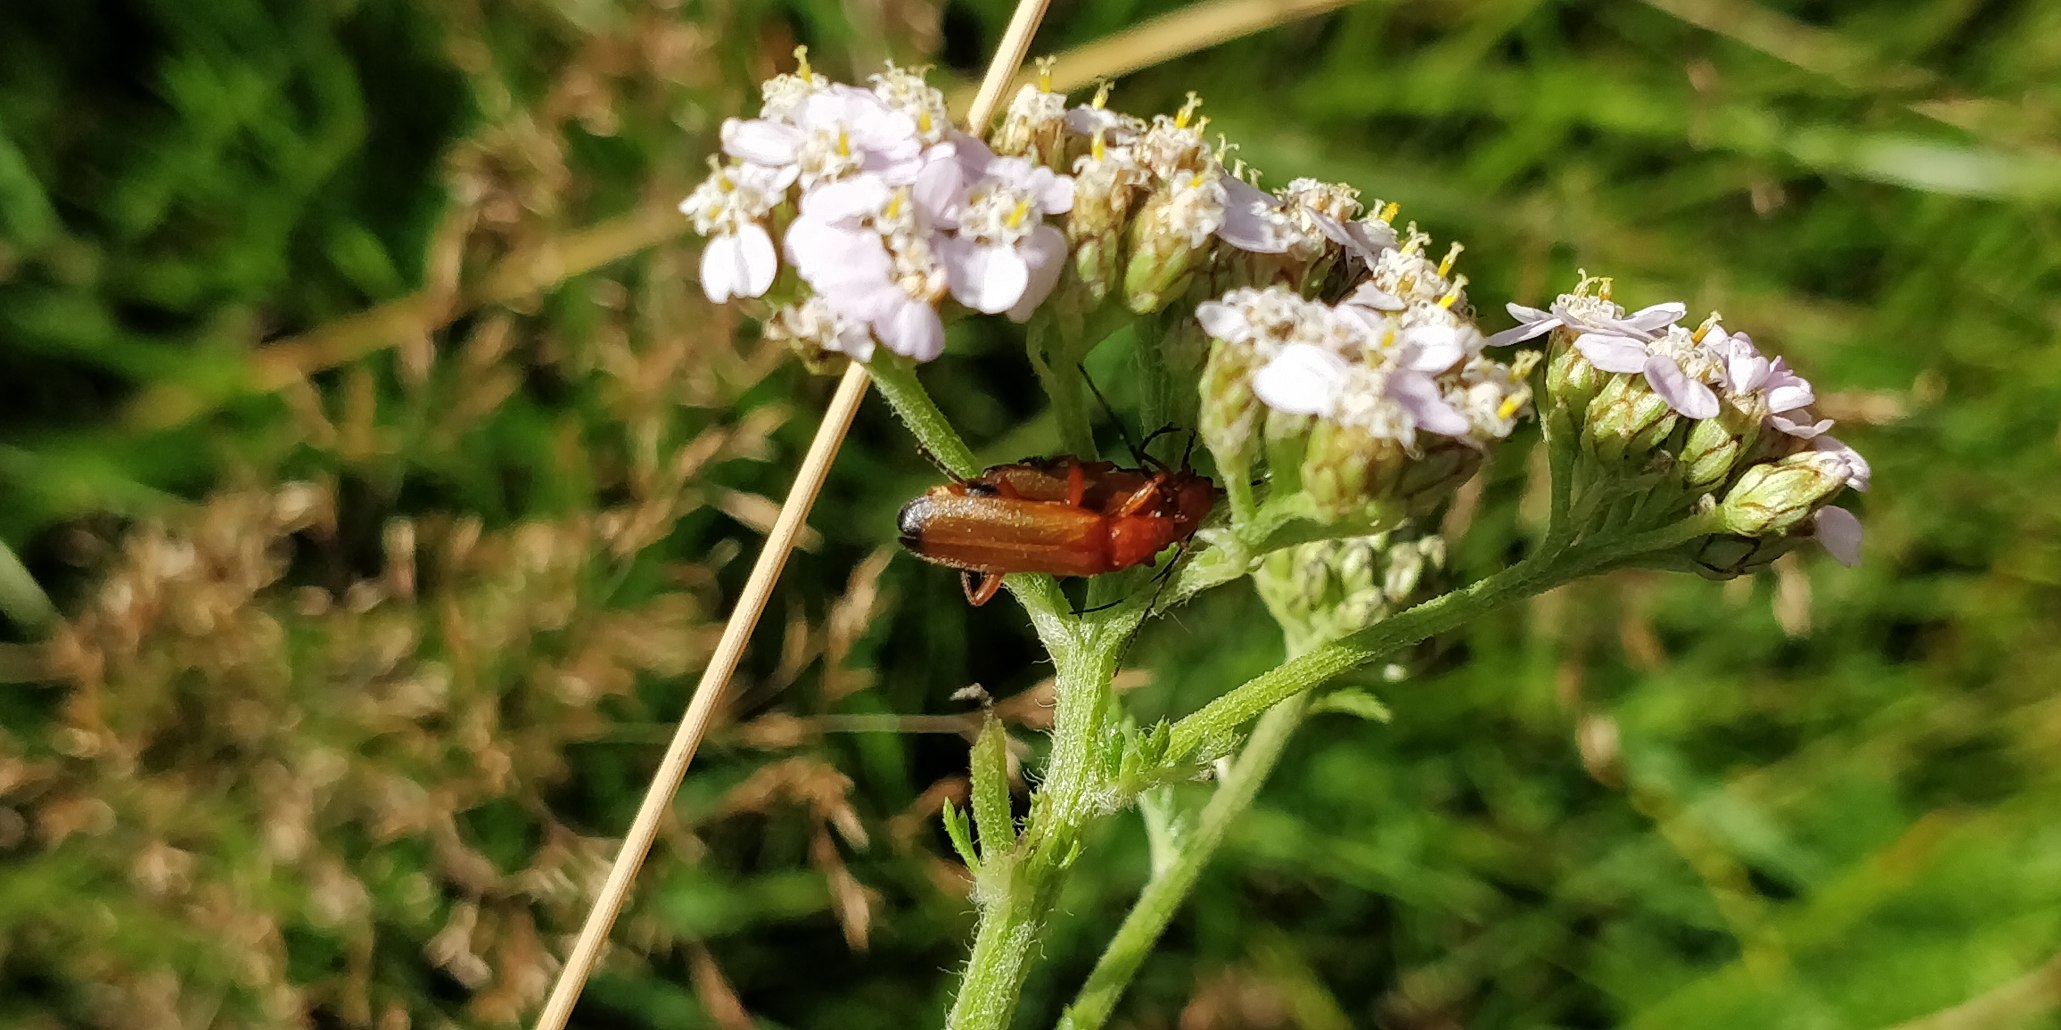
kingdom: Animalia
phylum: Arthropoda
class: Insecta
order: Coleoptera
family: Cantharidae
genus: Rhagonycha
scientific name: Rhagonycha fulva
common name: Præstebille
